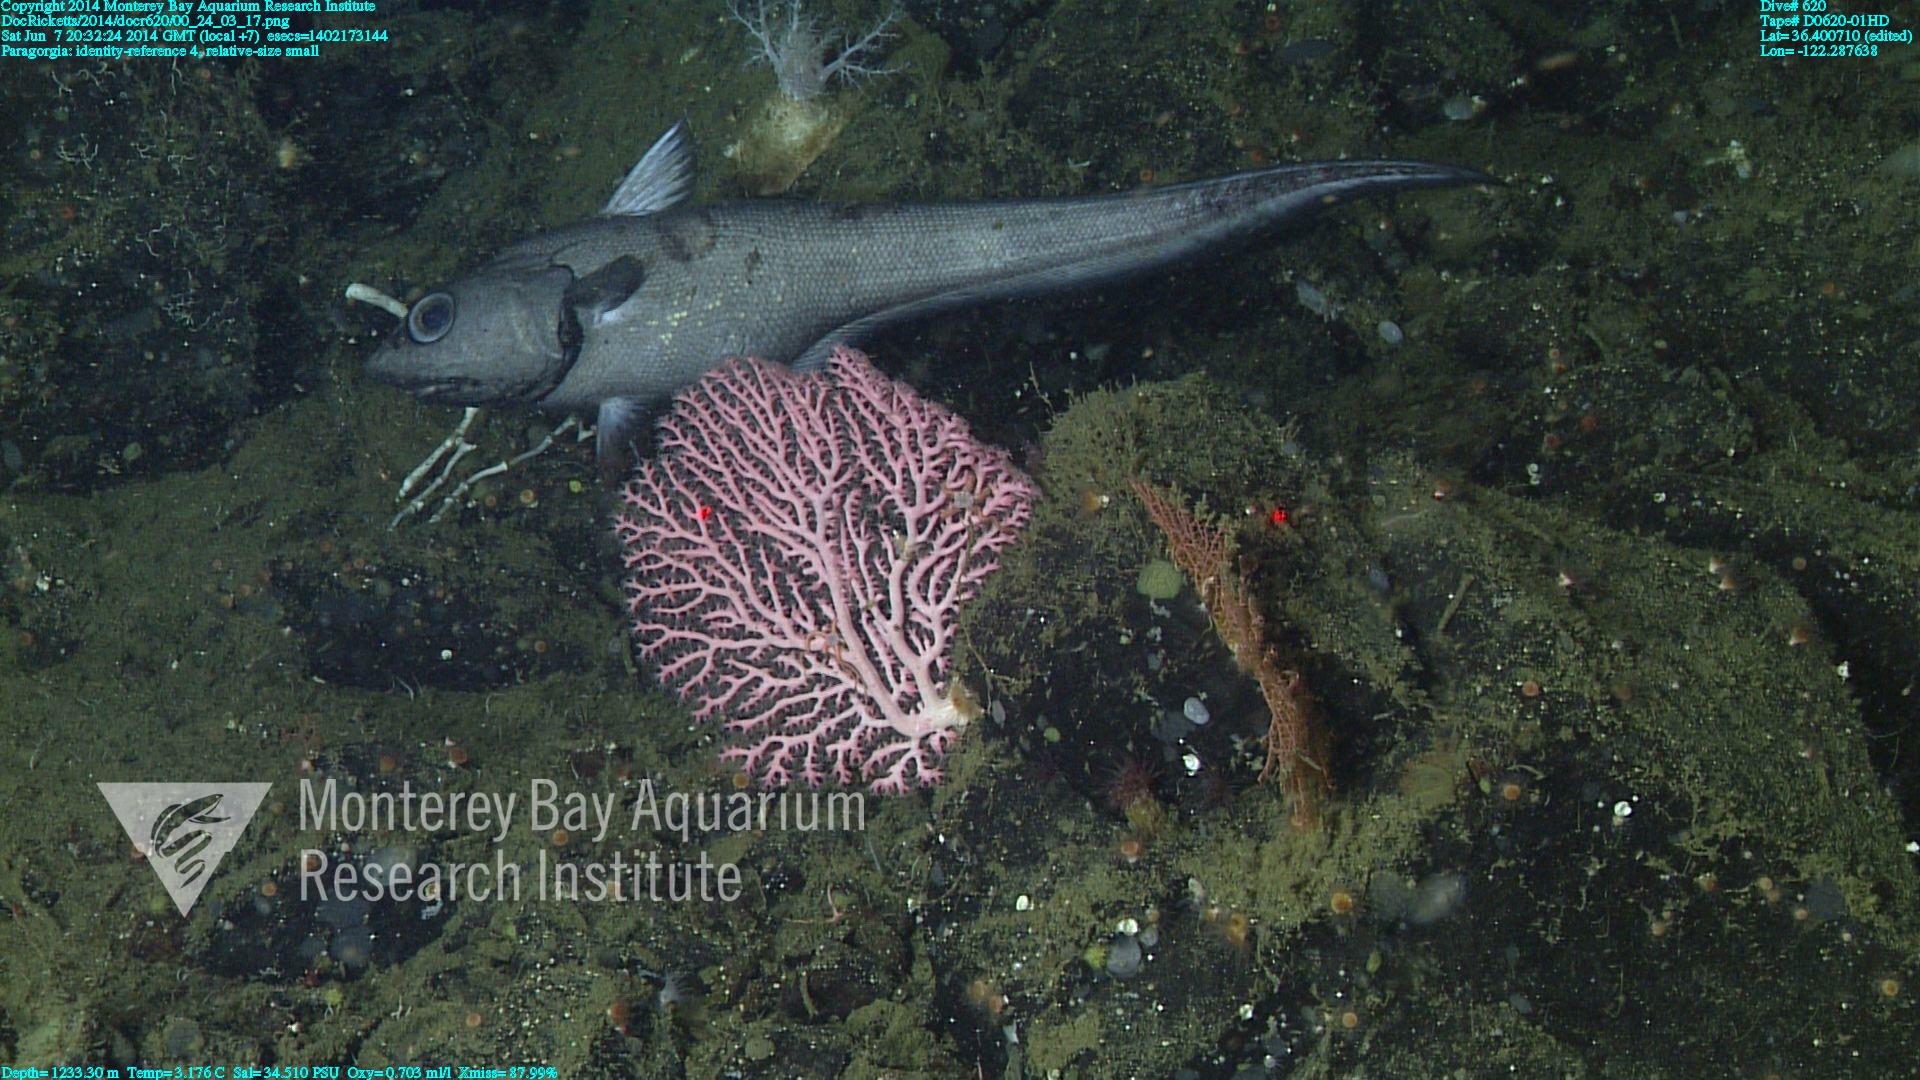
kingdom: Animalia
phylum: Cnidaria
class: Anthozoa
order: Scleralcyonacea
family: Coralliidae
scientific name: Coralliidae
